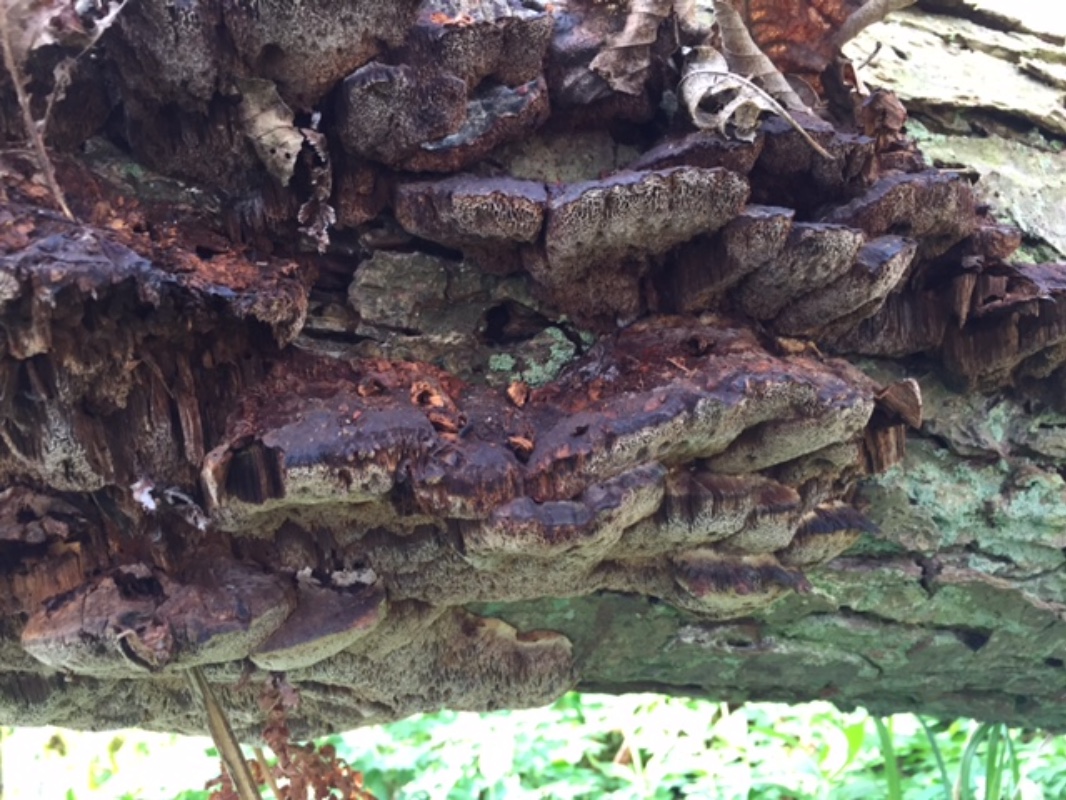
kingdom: Fungi
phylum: Basidiomycota
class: Agaricomycetes
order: Hymenochaetales
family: Hymenochaetaceae
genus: Xanthoporia
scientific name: Xanthoporia radiata
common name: elle-spejlporesvamp
